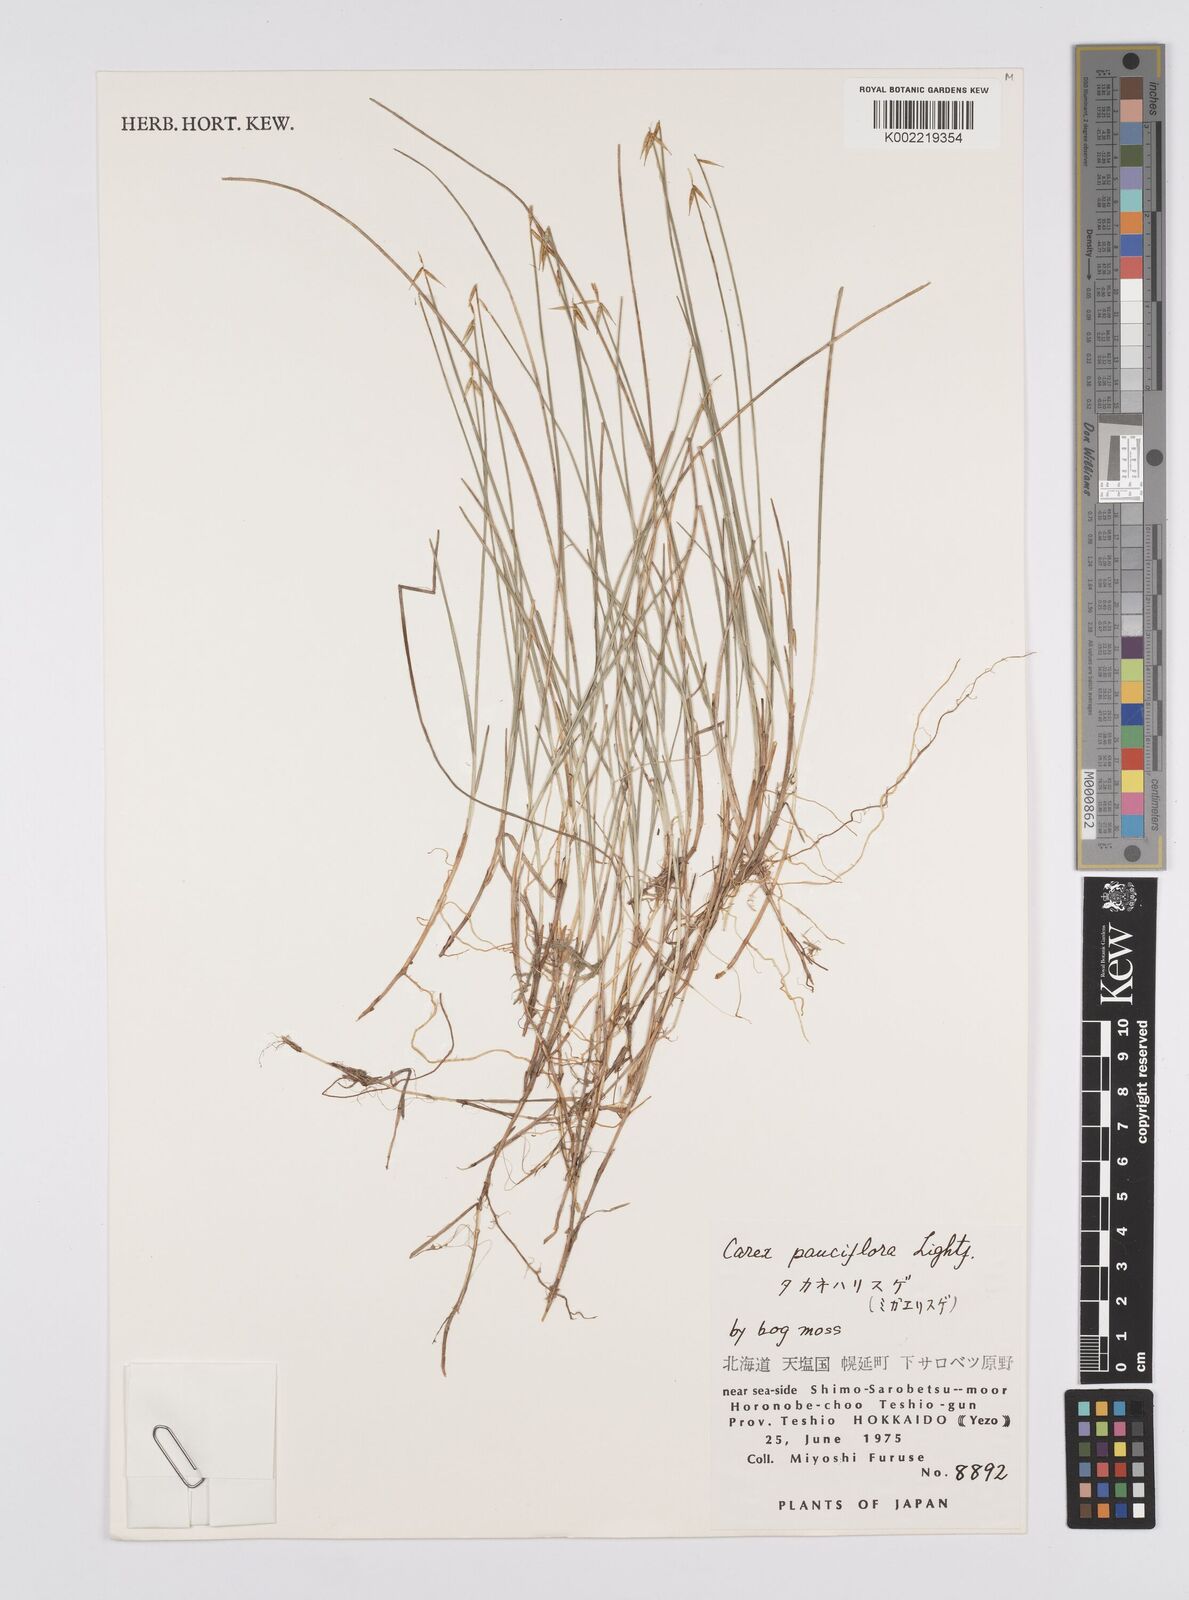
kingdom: Plantae
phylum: Tracheophyta
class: Liliopsida
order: Poales
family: Cyperaceae
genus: Carex
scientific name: Carex pauciflora
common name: Few-flowered sedge
